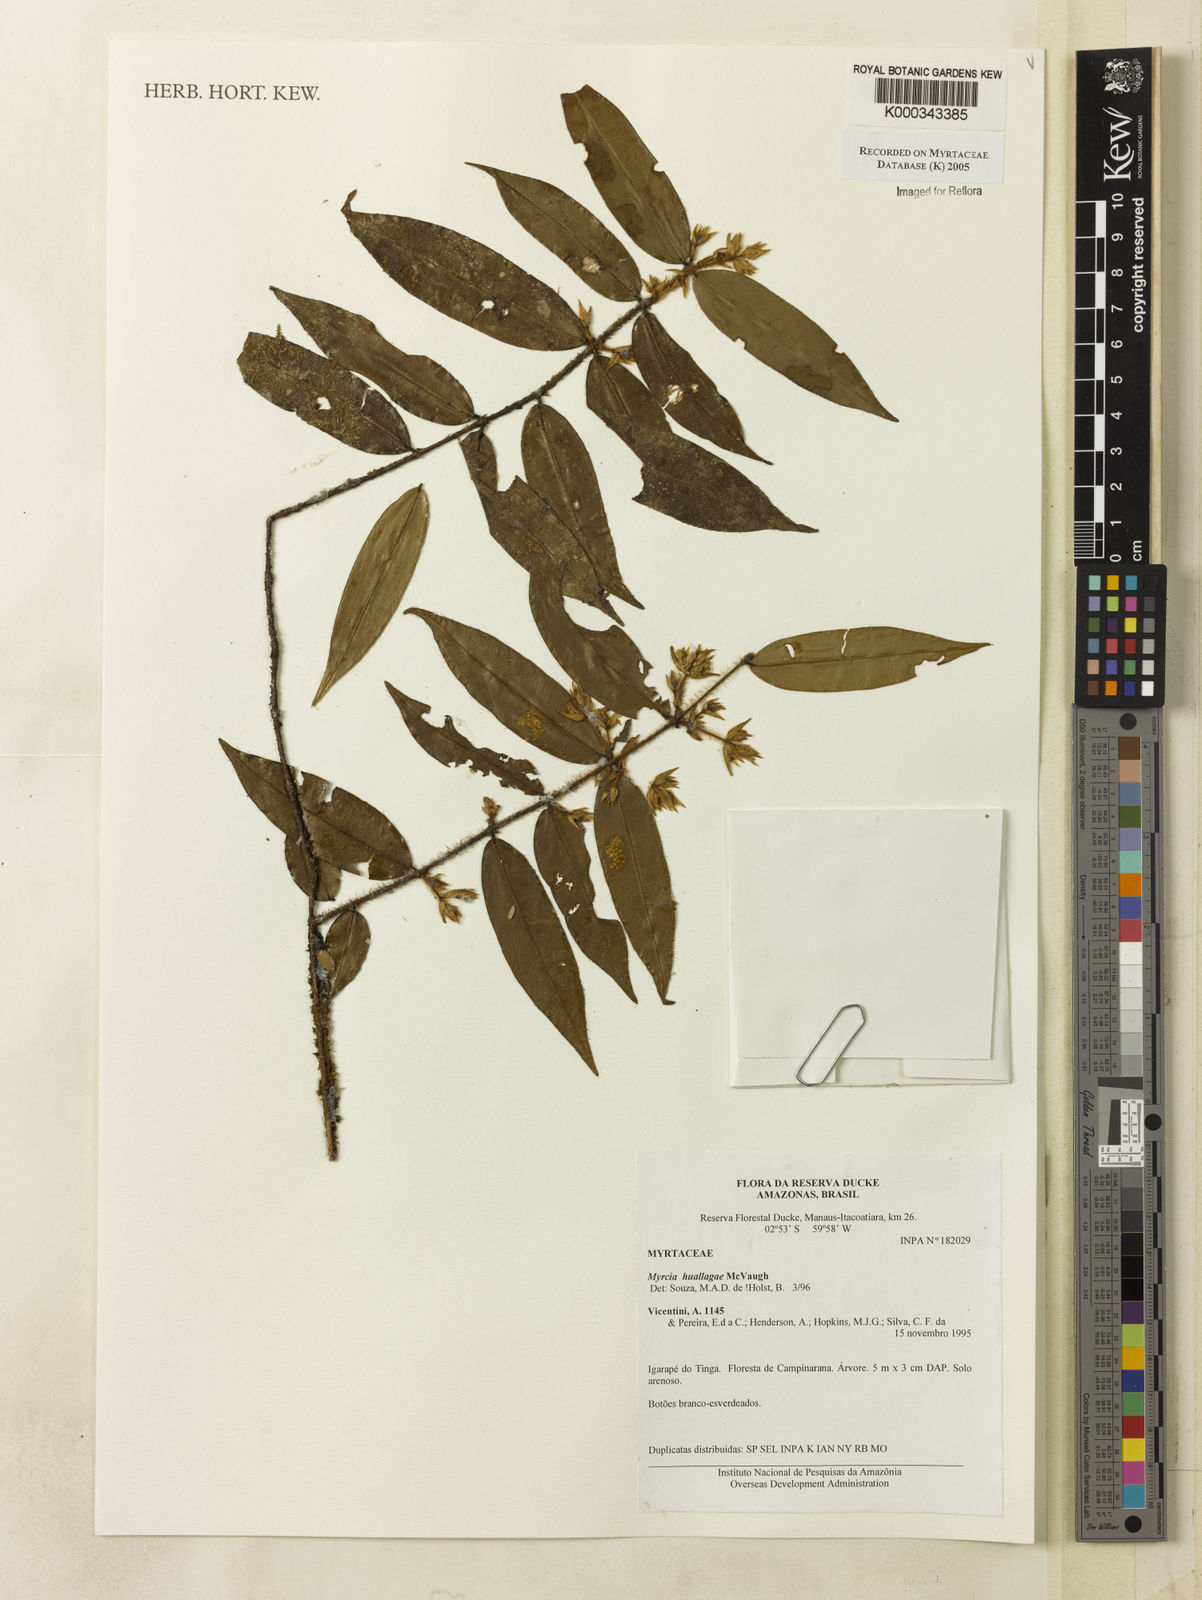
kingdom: Plantae
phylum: Tracheophyta
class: Magnoliopsida
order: Myrtales
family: Myrtaceae
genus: Myrcia
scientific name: Myrcia huallagae
